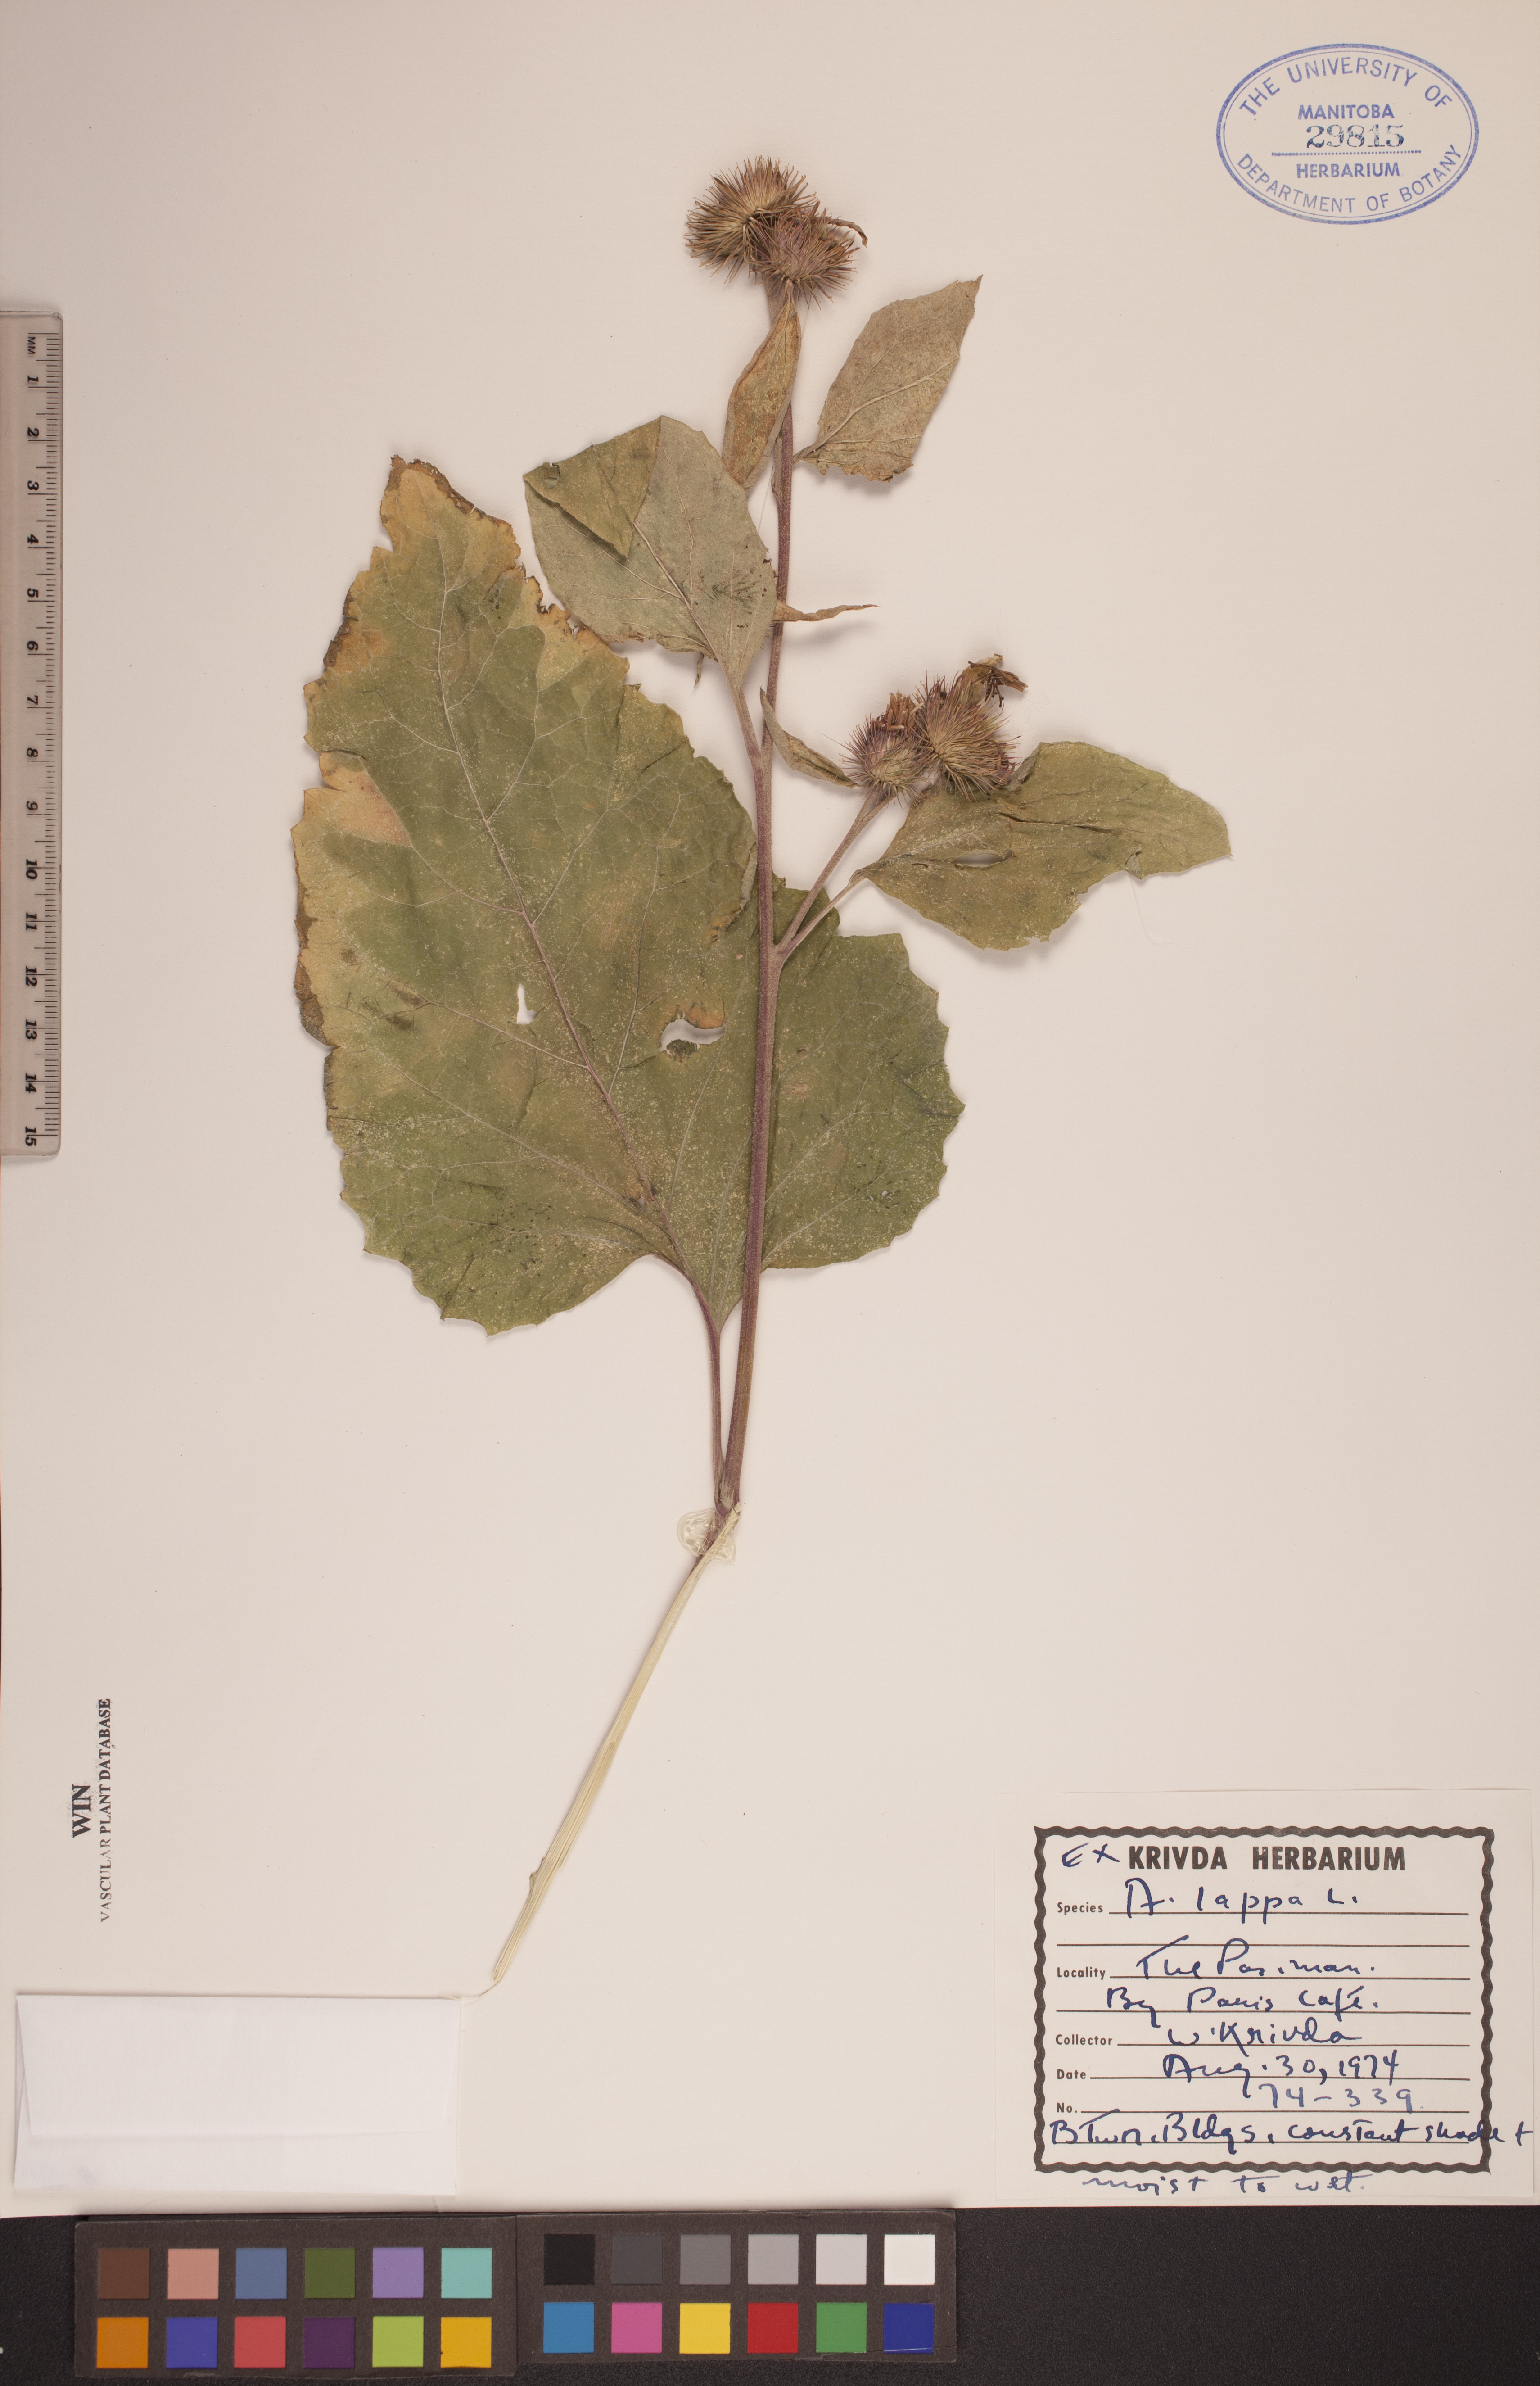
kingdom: Plantae
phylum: Tracheophyta
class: Magnoliopsida
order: Asterales
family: Asteraceae
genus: Arctium
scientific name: Arctium lappa
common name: Greater burdock
